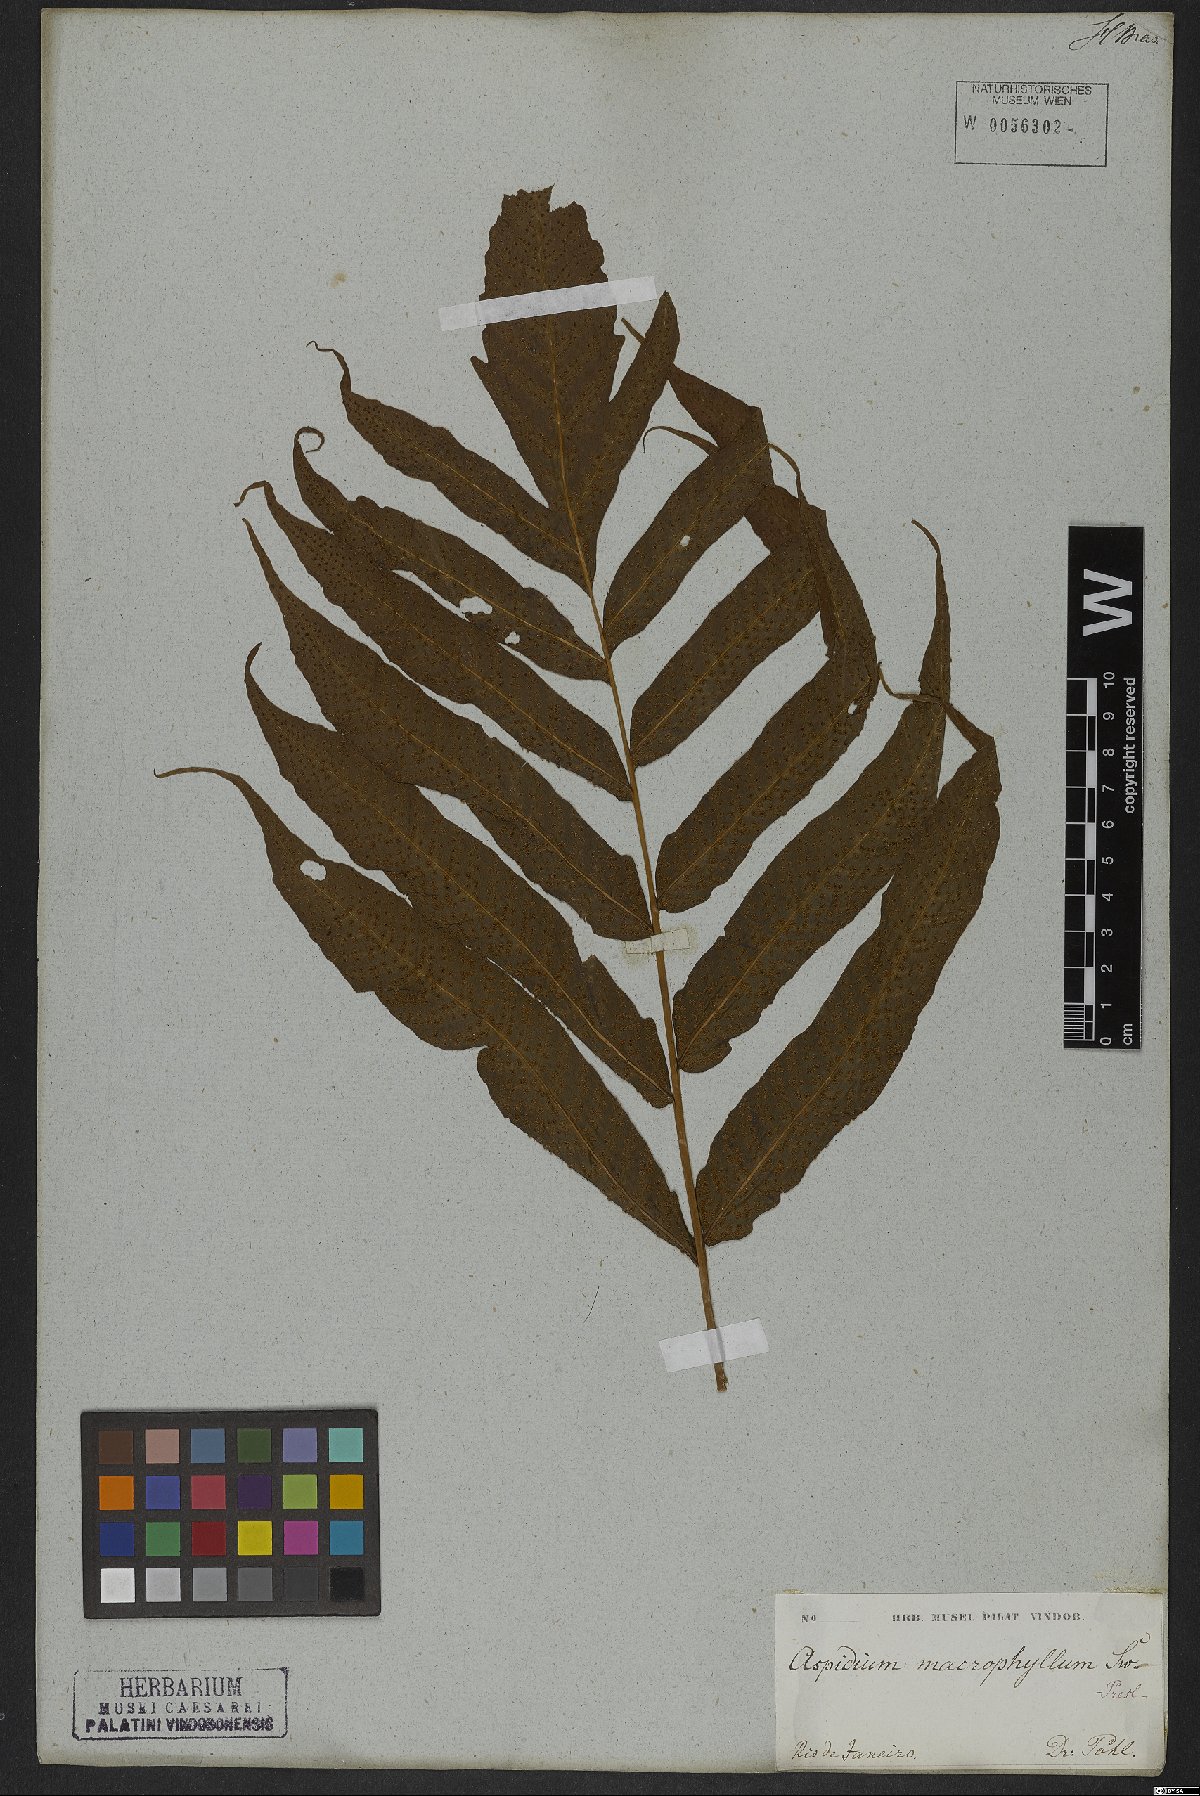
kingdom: Plantae
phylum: Tracheophyta
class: Polypodiopsida
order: Polypodiales
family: Tectariaceae
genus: Tectaria
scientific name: Tectaria incisa
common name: Incised halberd fern
